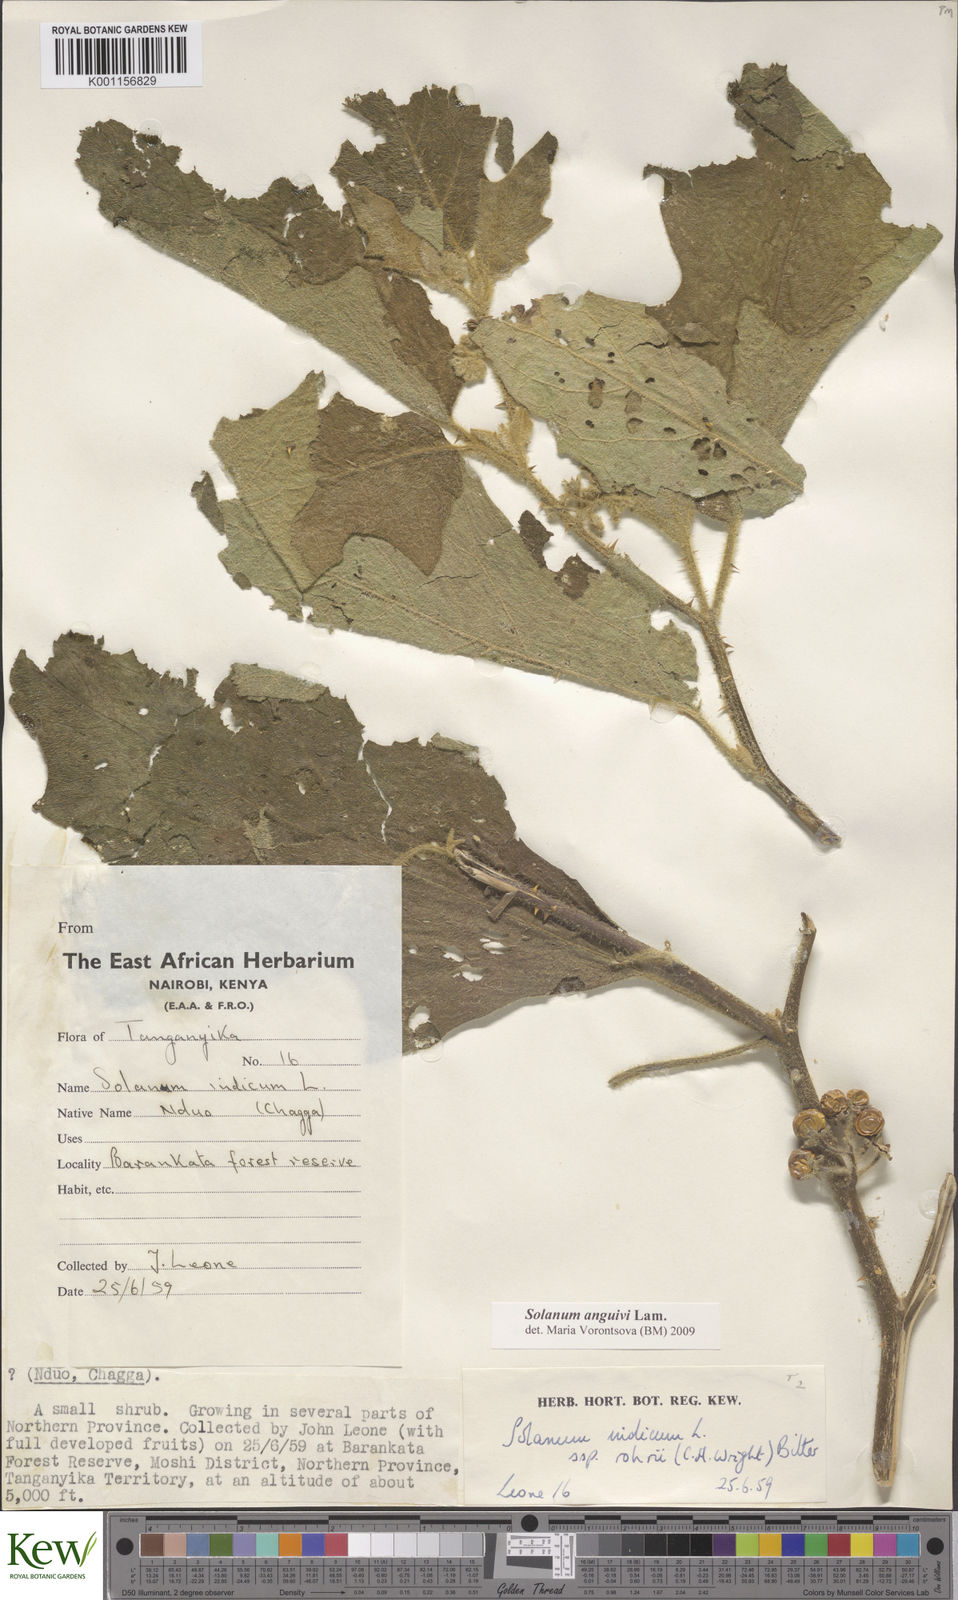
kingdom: Plantae
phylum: Tracheophyta
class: Magnoliopsida
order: Solanales
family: Solanaceae
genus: Solanum
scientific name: Solanum anguivi
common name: Forest bitterberry
